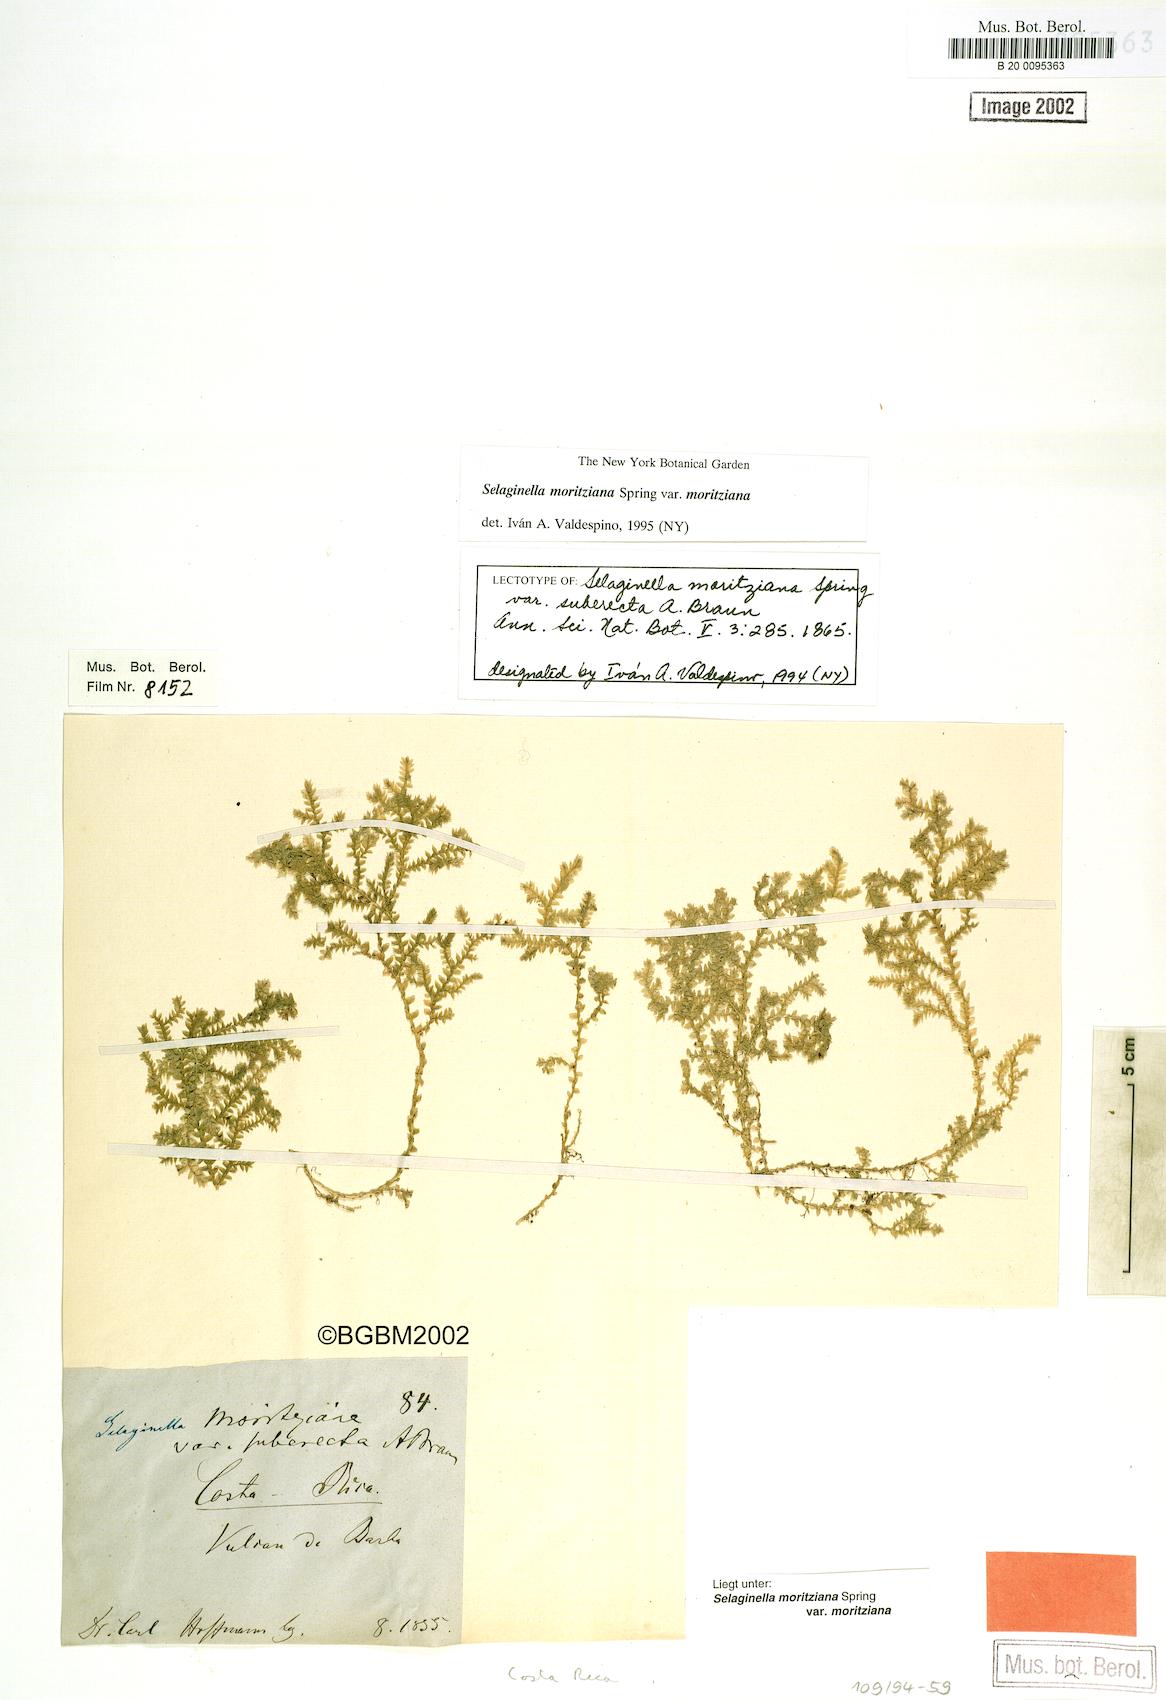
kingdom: Plantae
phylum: Tracheophyta
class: Lycopodiopsida
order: Selaginellales
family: Selaginellaceae
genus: Selaginella
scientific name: Selaginella moritziana
